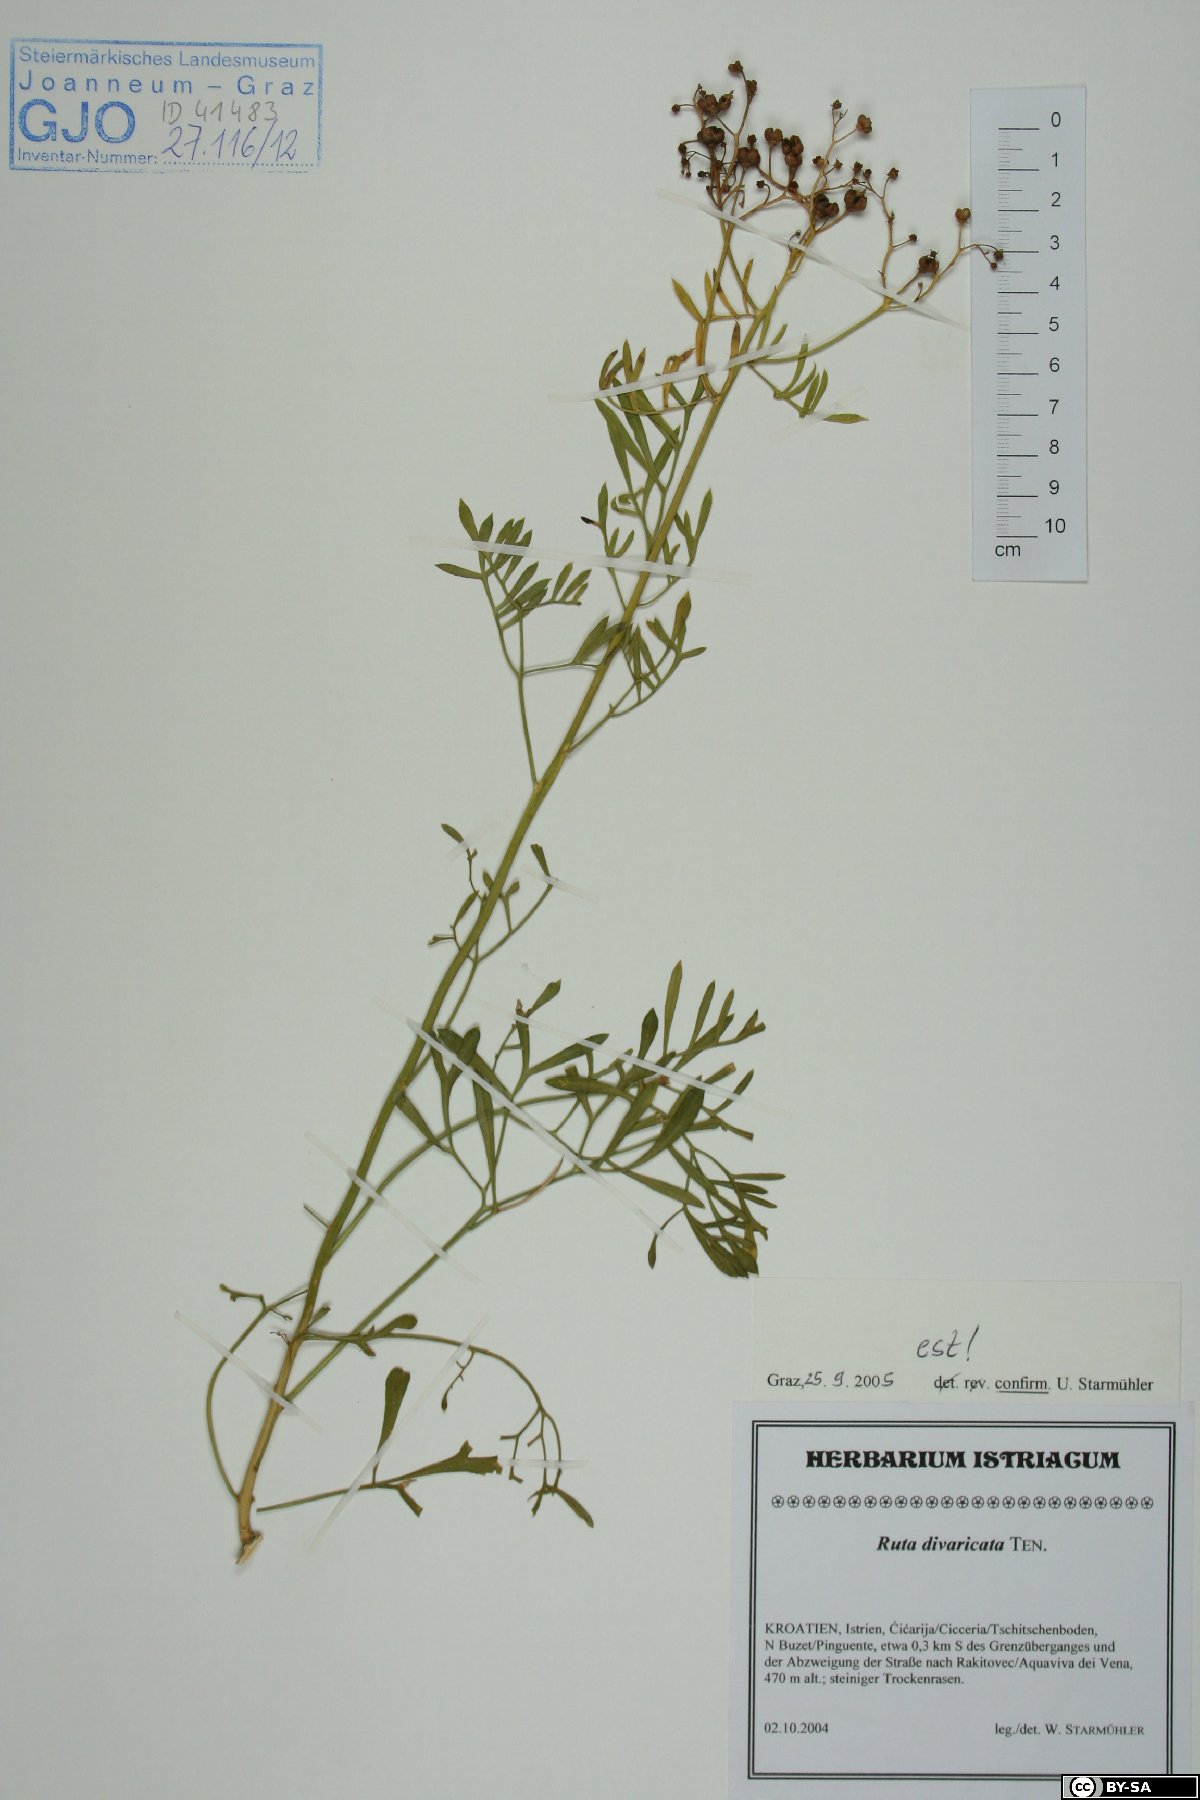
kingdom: Plantae
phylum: Tracheophyta
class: Magnoliopsida
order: Sapindales
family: Rutaceae
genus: Ruta
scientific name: Ruta graveolens
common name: Common rue
